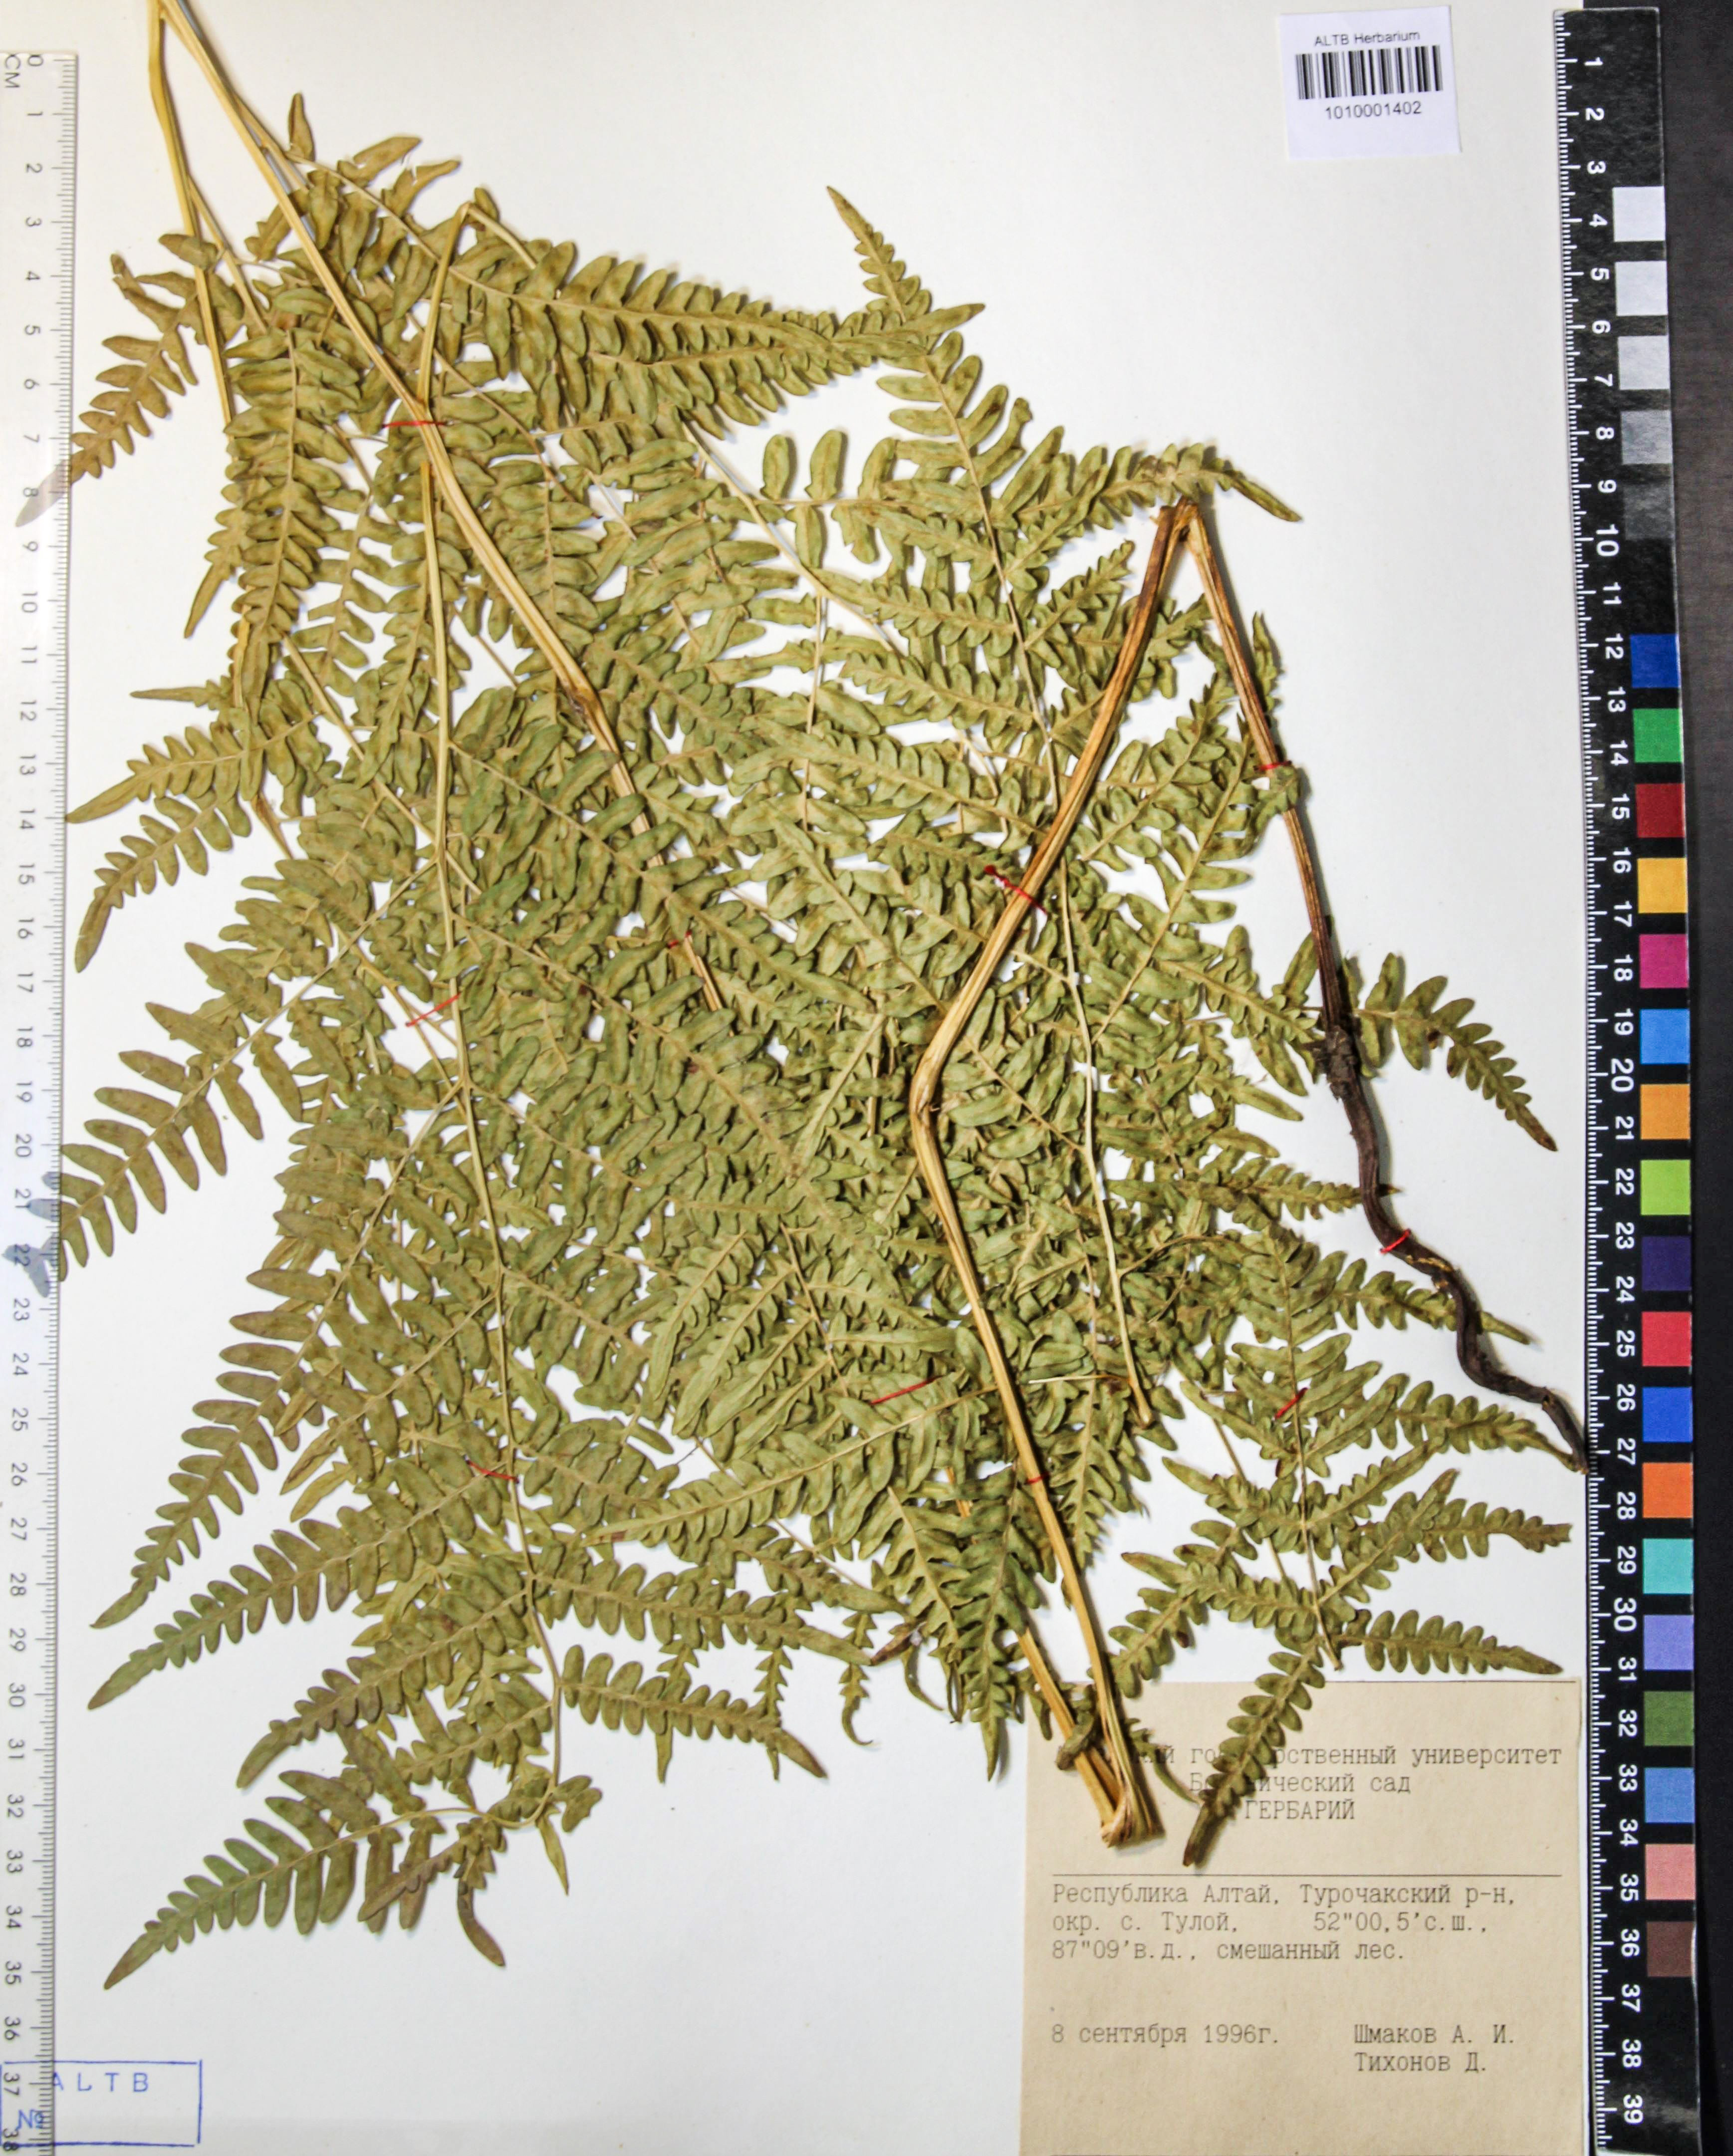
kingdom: Plantae
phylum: Tracheophyta
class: Polypodiopsida
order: Polypodiales
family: Dennstaedtiaceae
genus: Pteridium
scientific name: Pteridium aquilinum
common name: Bracken
